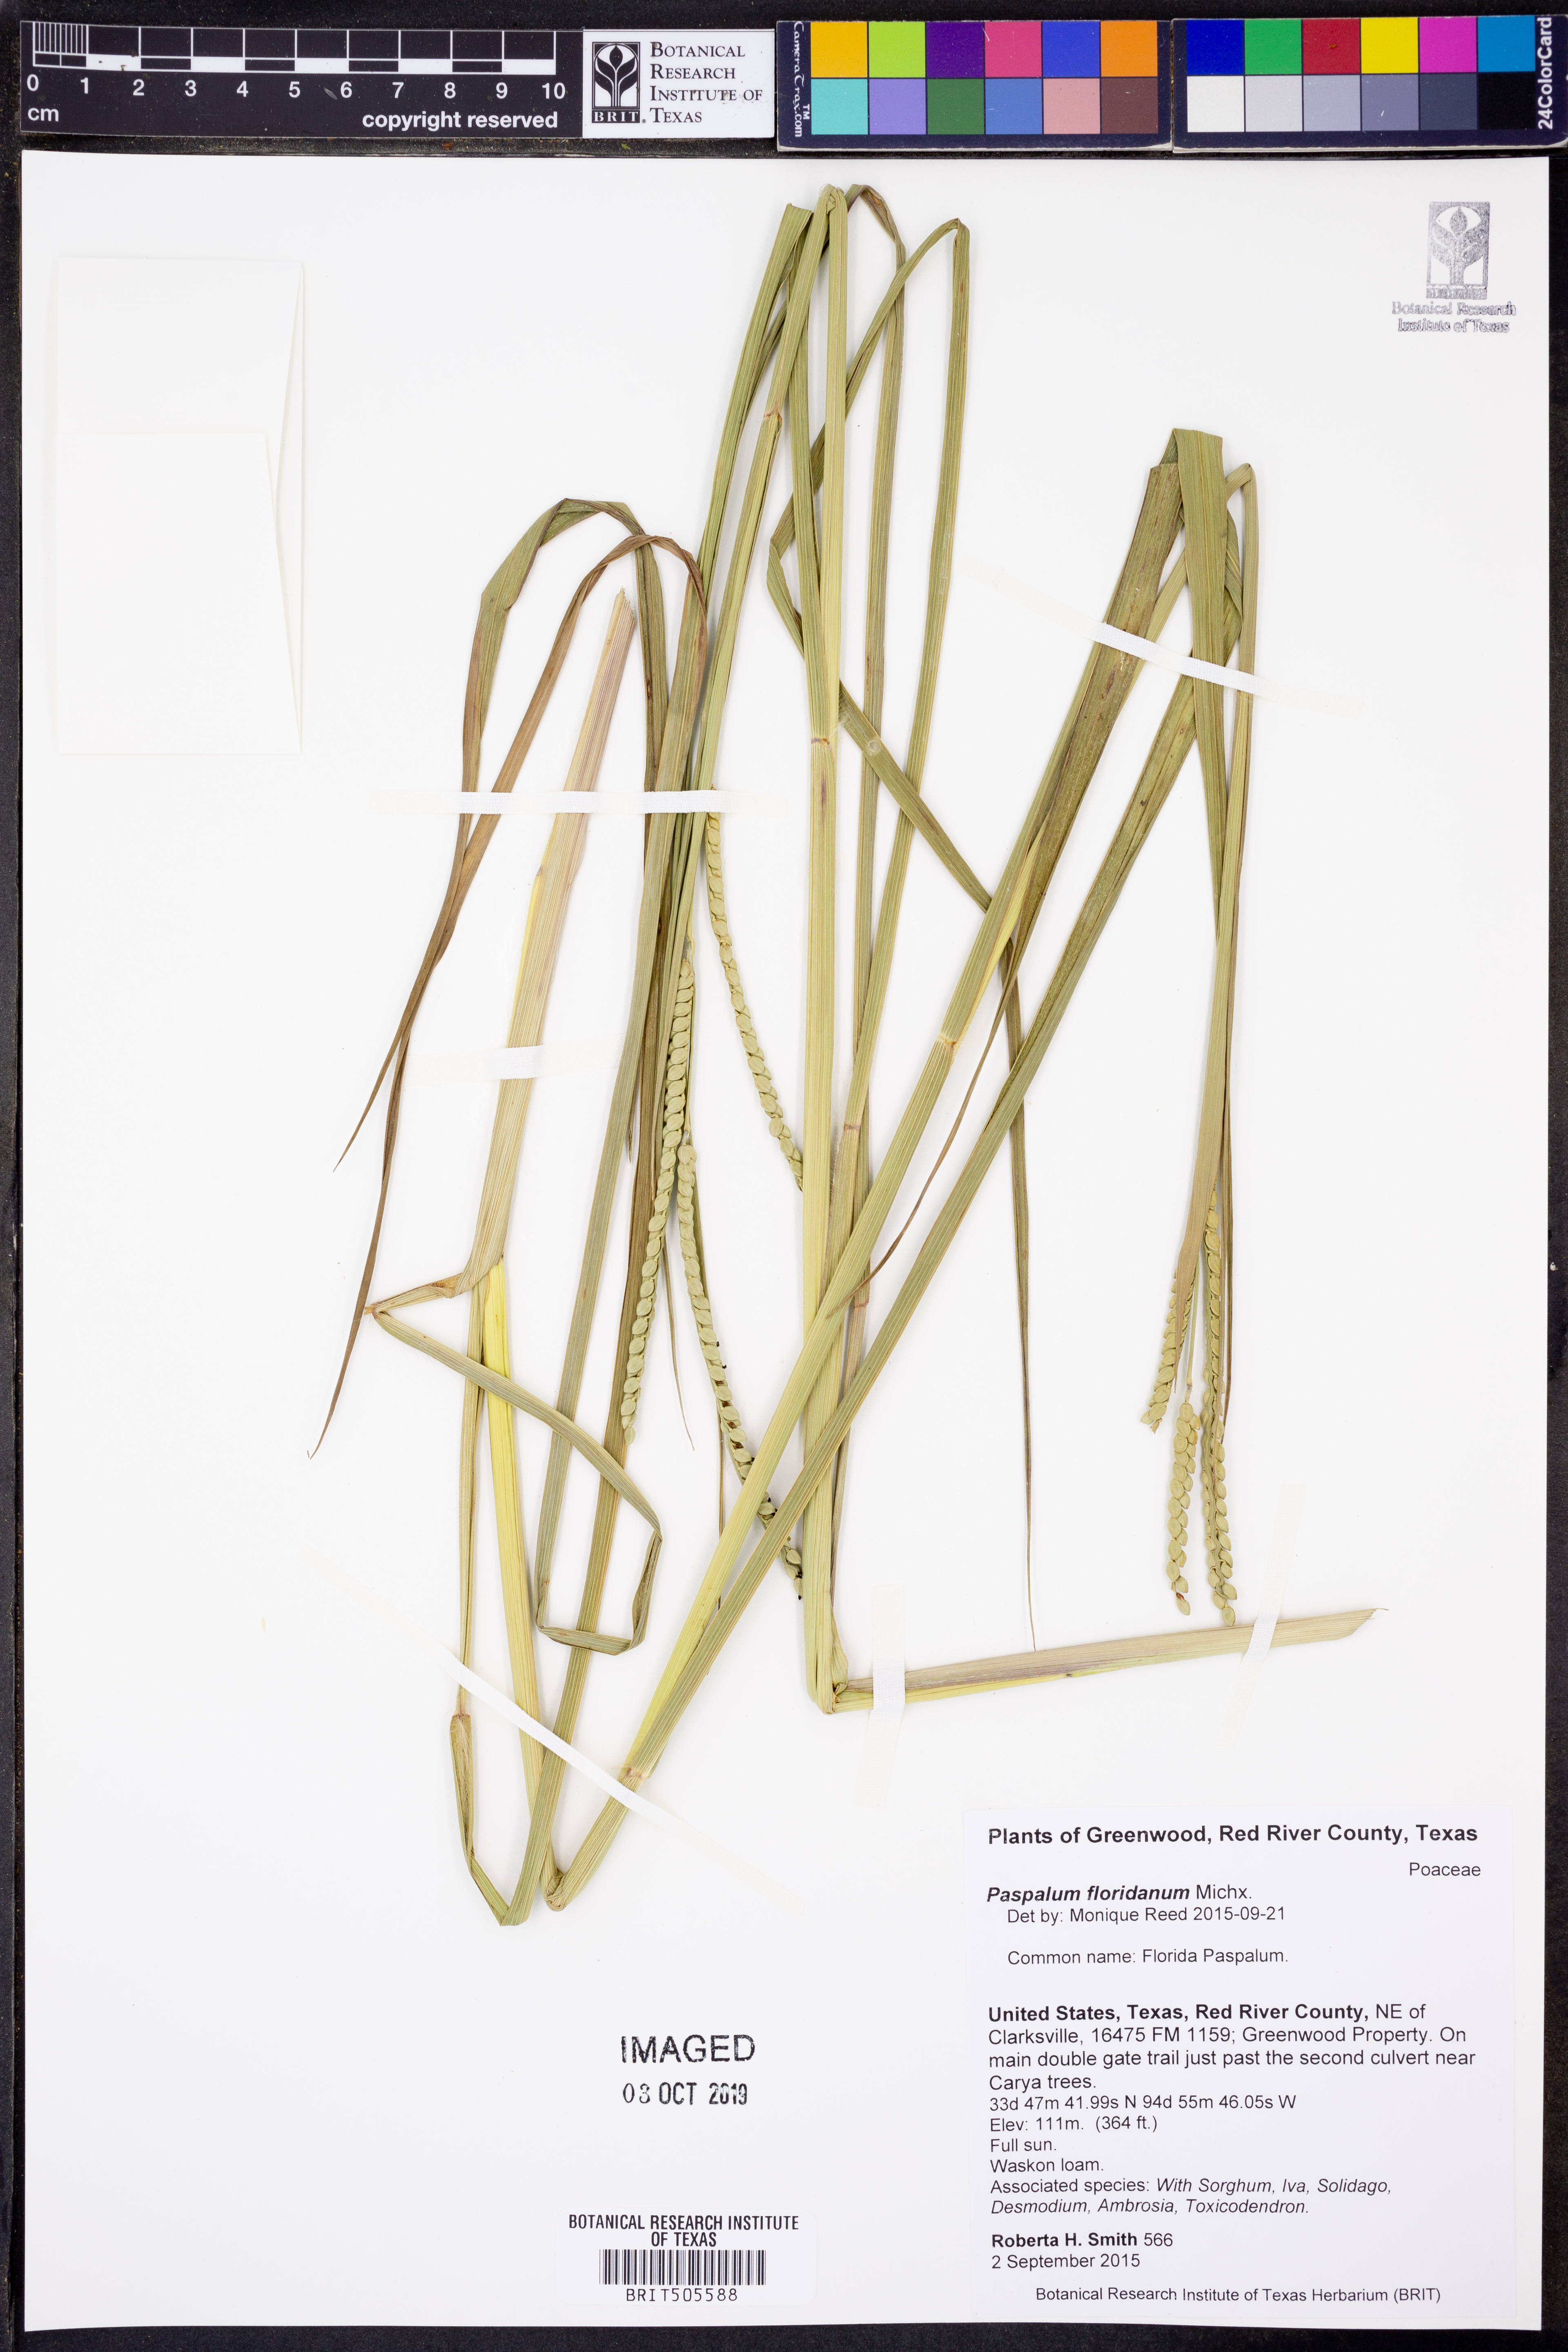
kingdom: Plantae
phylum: Tracheophyta
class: Liliopsida
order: Poales
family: Poaceae
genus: Paspalum
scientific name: Paspalum floridanum
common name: Florida paspalum
